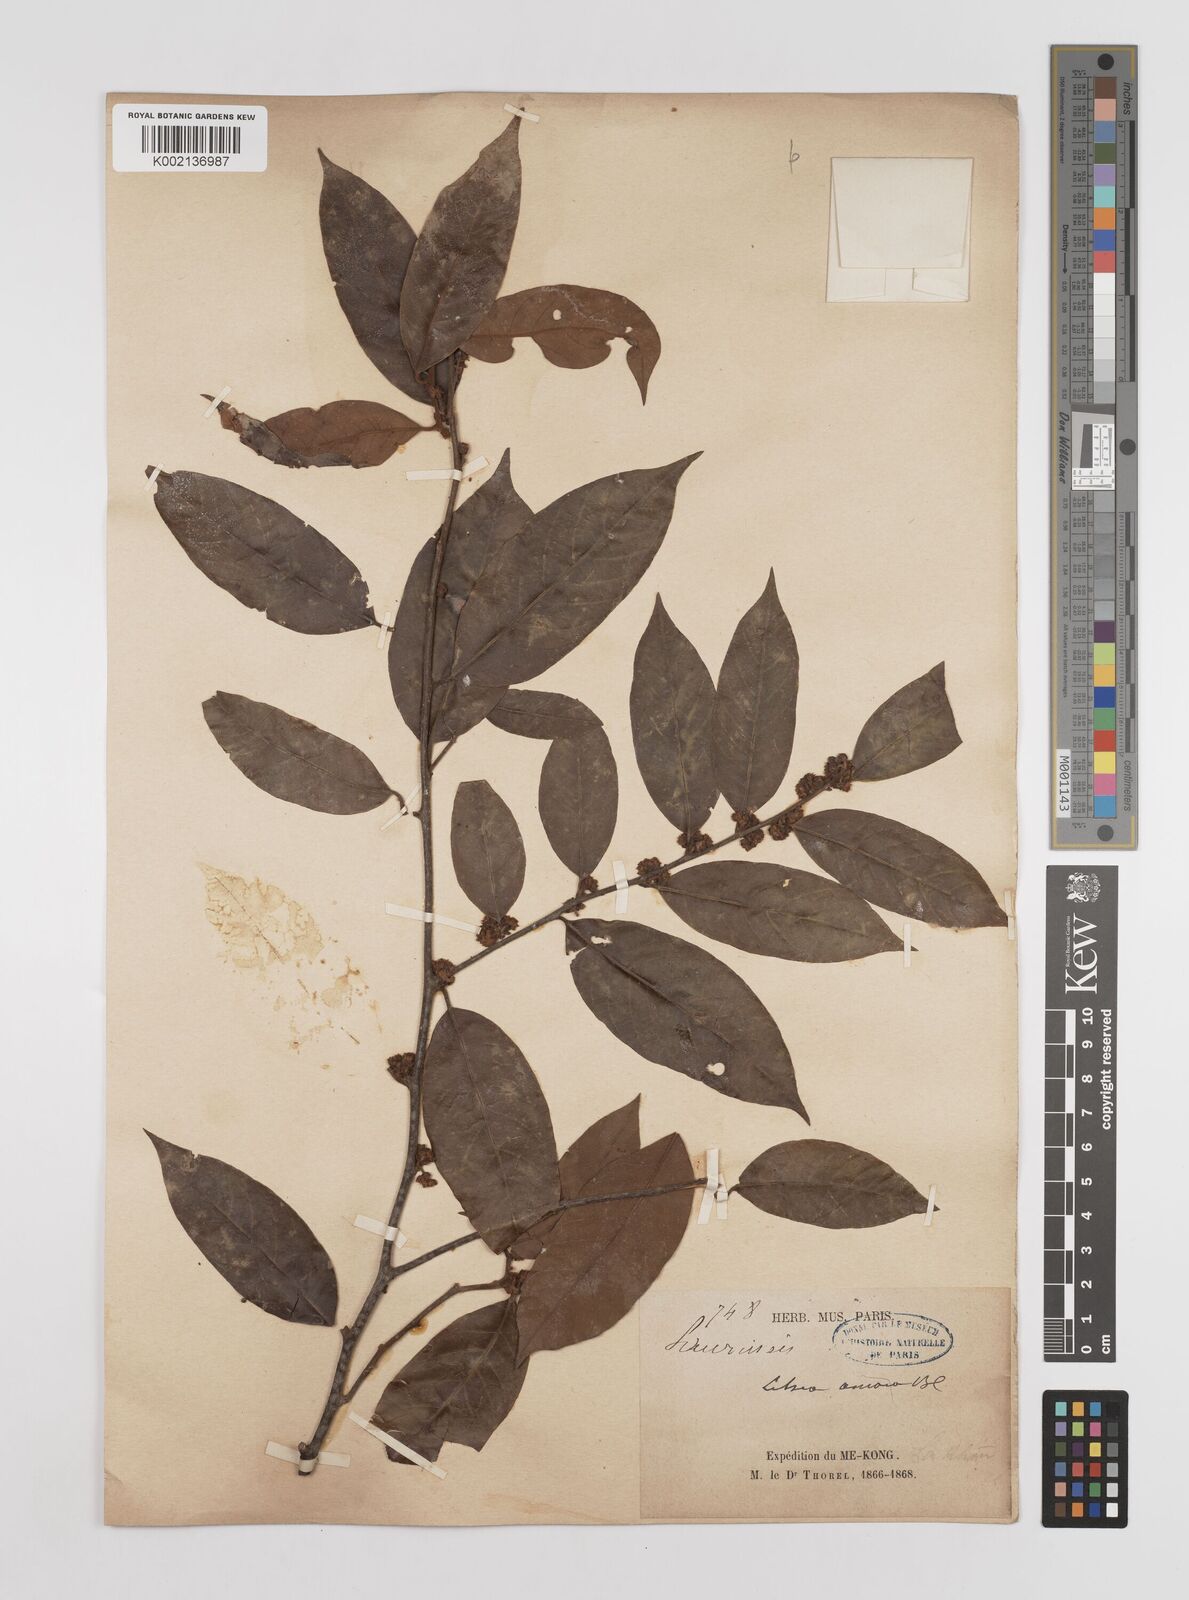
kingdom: Plantae
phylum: Tracheophyta
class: Magnoliopsida
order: Laurales
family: Lauraceae
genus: Litsea
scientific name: Litsea umbellata
